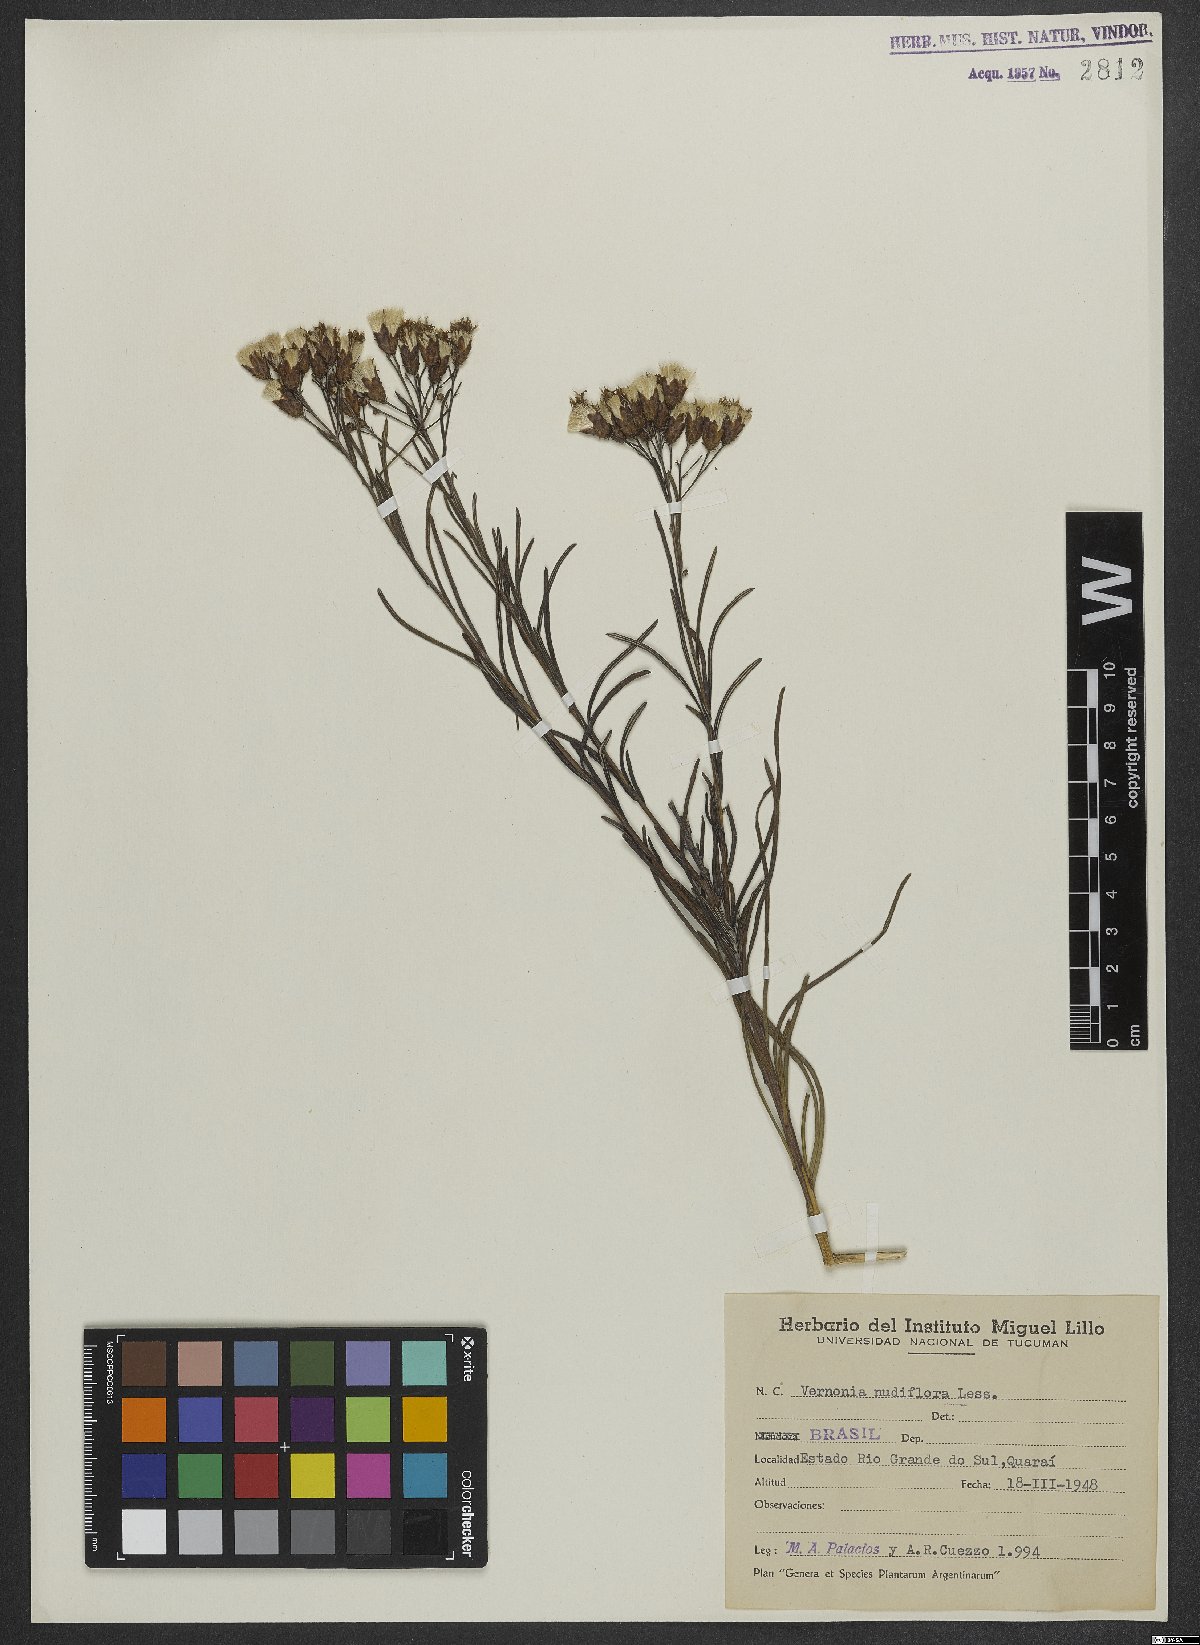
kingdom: Plantae
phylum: Tracheophyta
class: Magnoliopsida
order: Asterales
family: Asteraceae
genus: Vernonanthura
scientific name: Vernonanthura nudiflora
